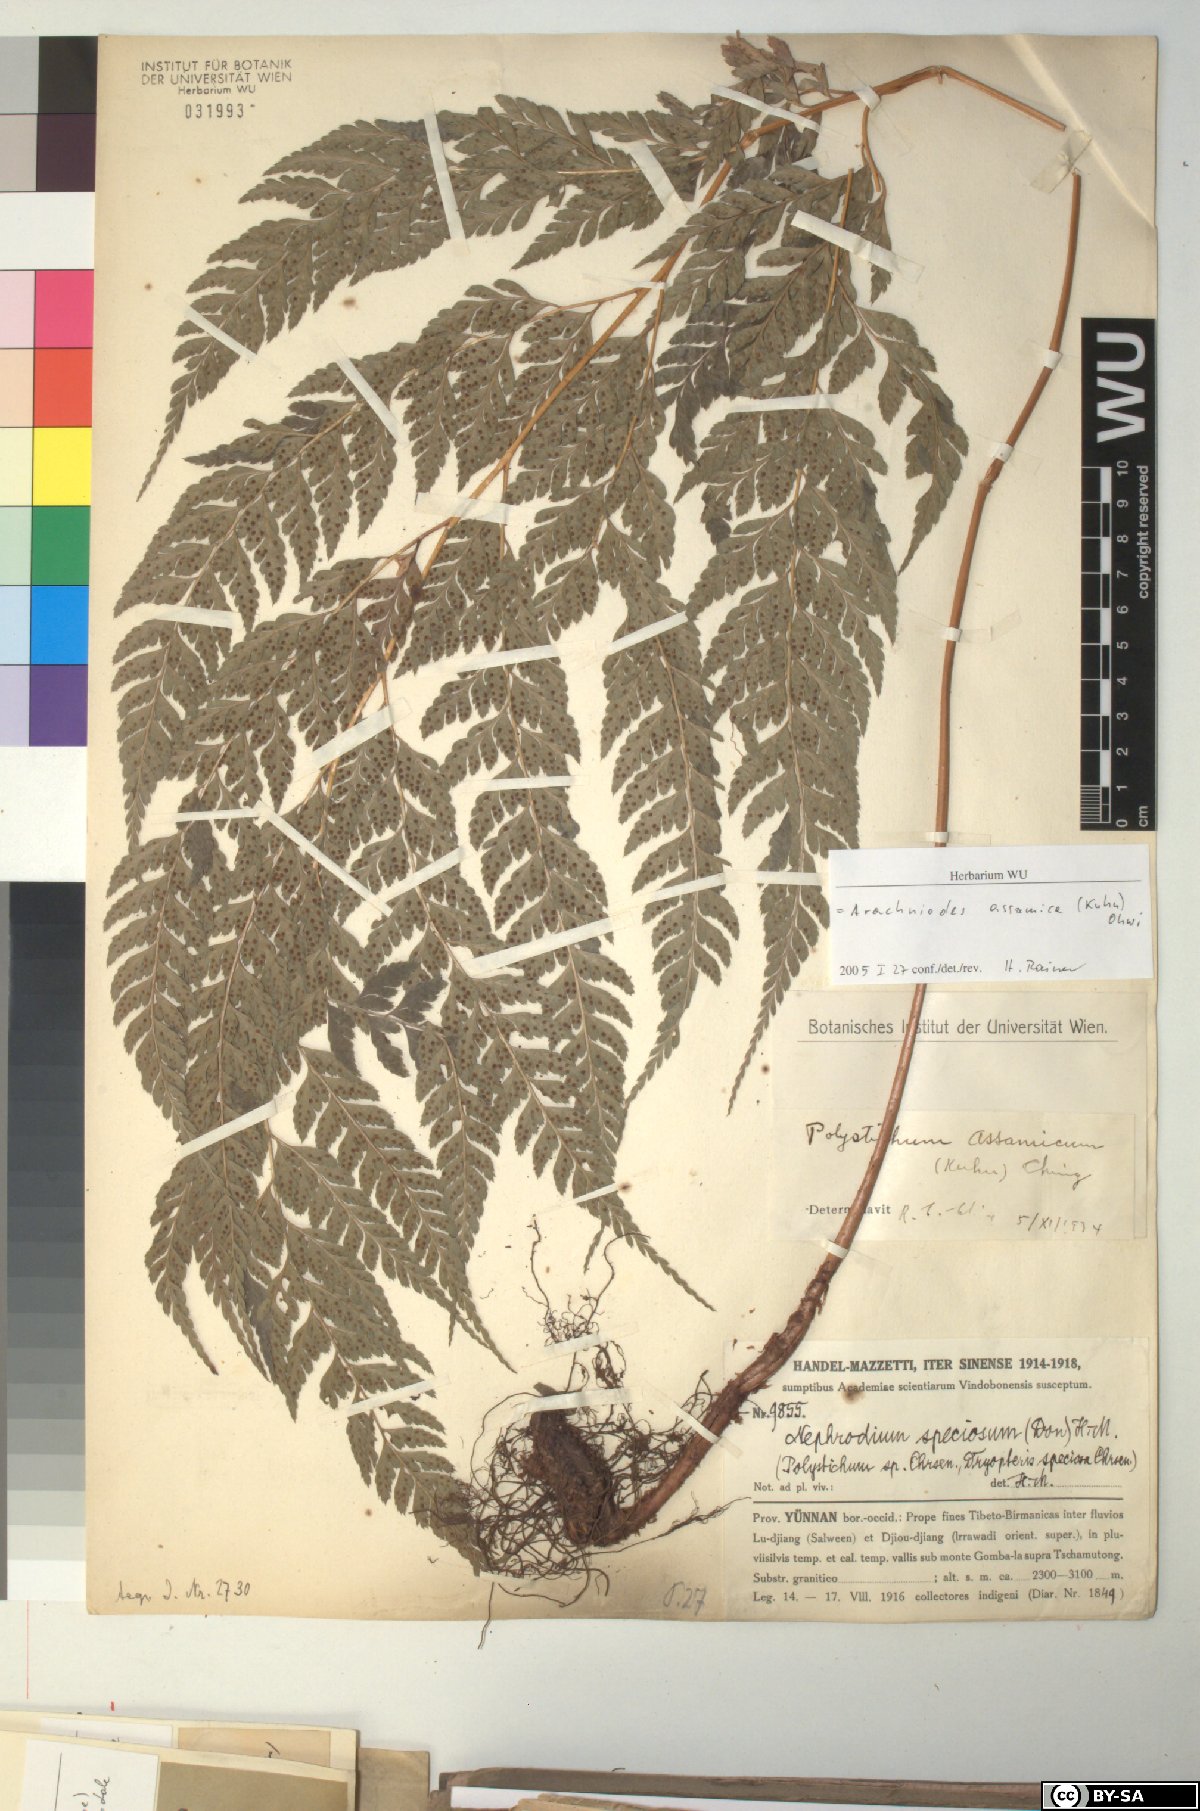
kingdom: Plantae
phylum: Tracheophyta
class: Polypodiopsida
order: Polypodiales
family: Dryopteridaceae
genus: Arachniodes
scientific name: Arachniodes assamica
